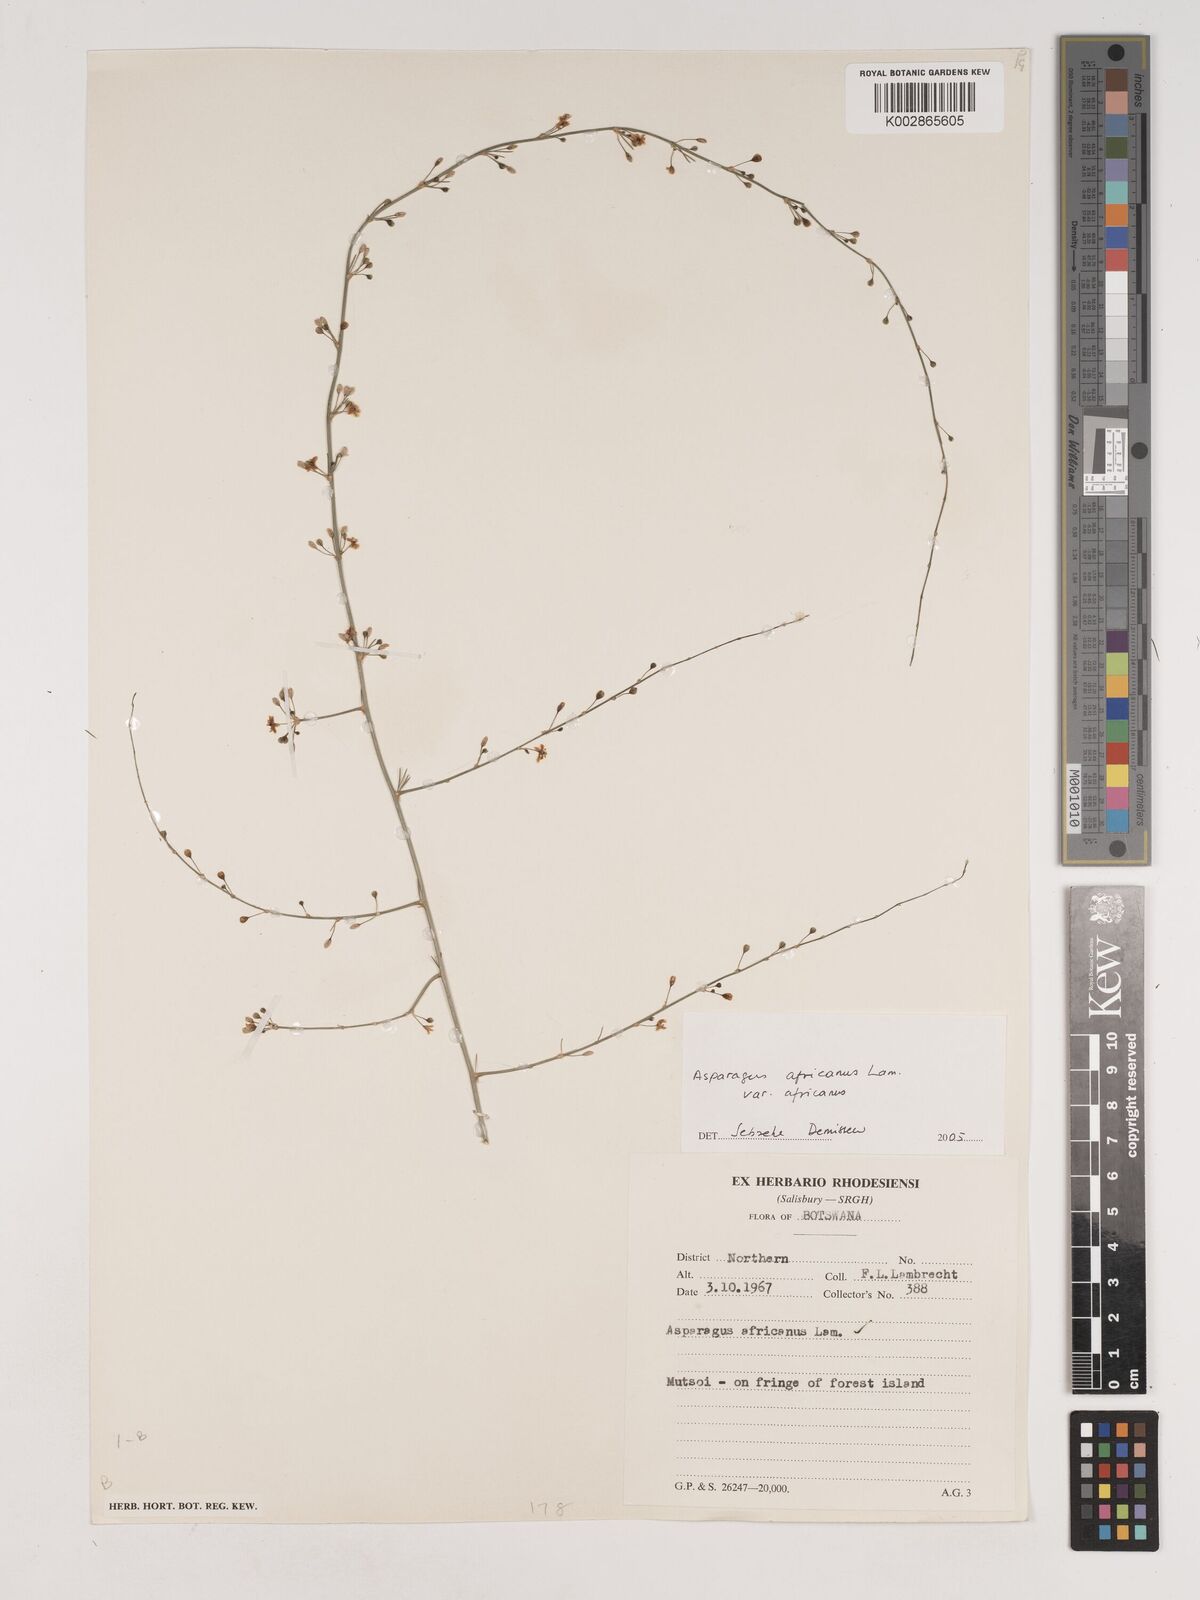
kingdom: Plantae
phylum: Tracheophyta
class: Liliopsida
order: Asparagales
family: Asparagaceae
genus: Asparagus
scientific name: Asparagus africanus
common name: Asparagus-fern
